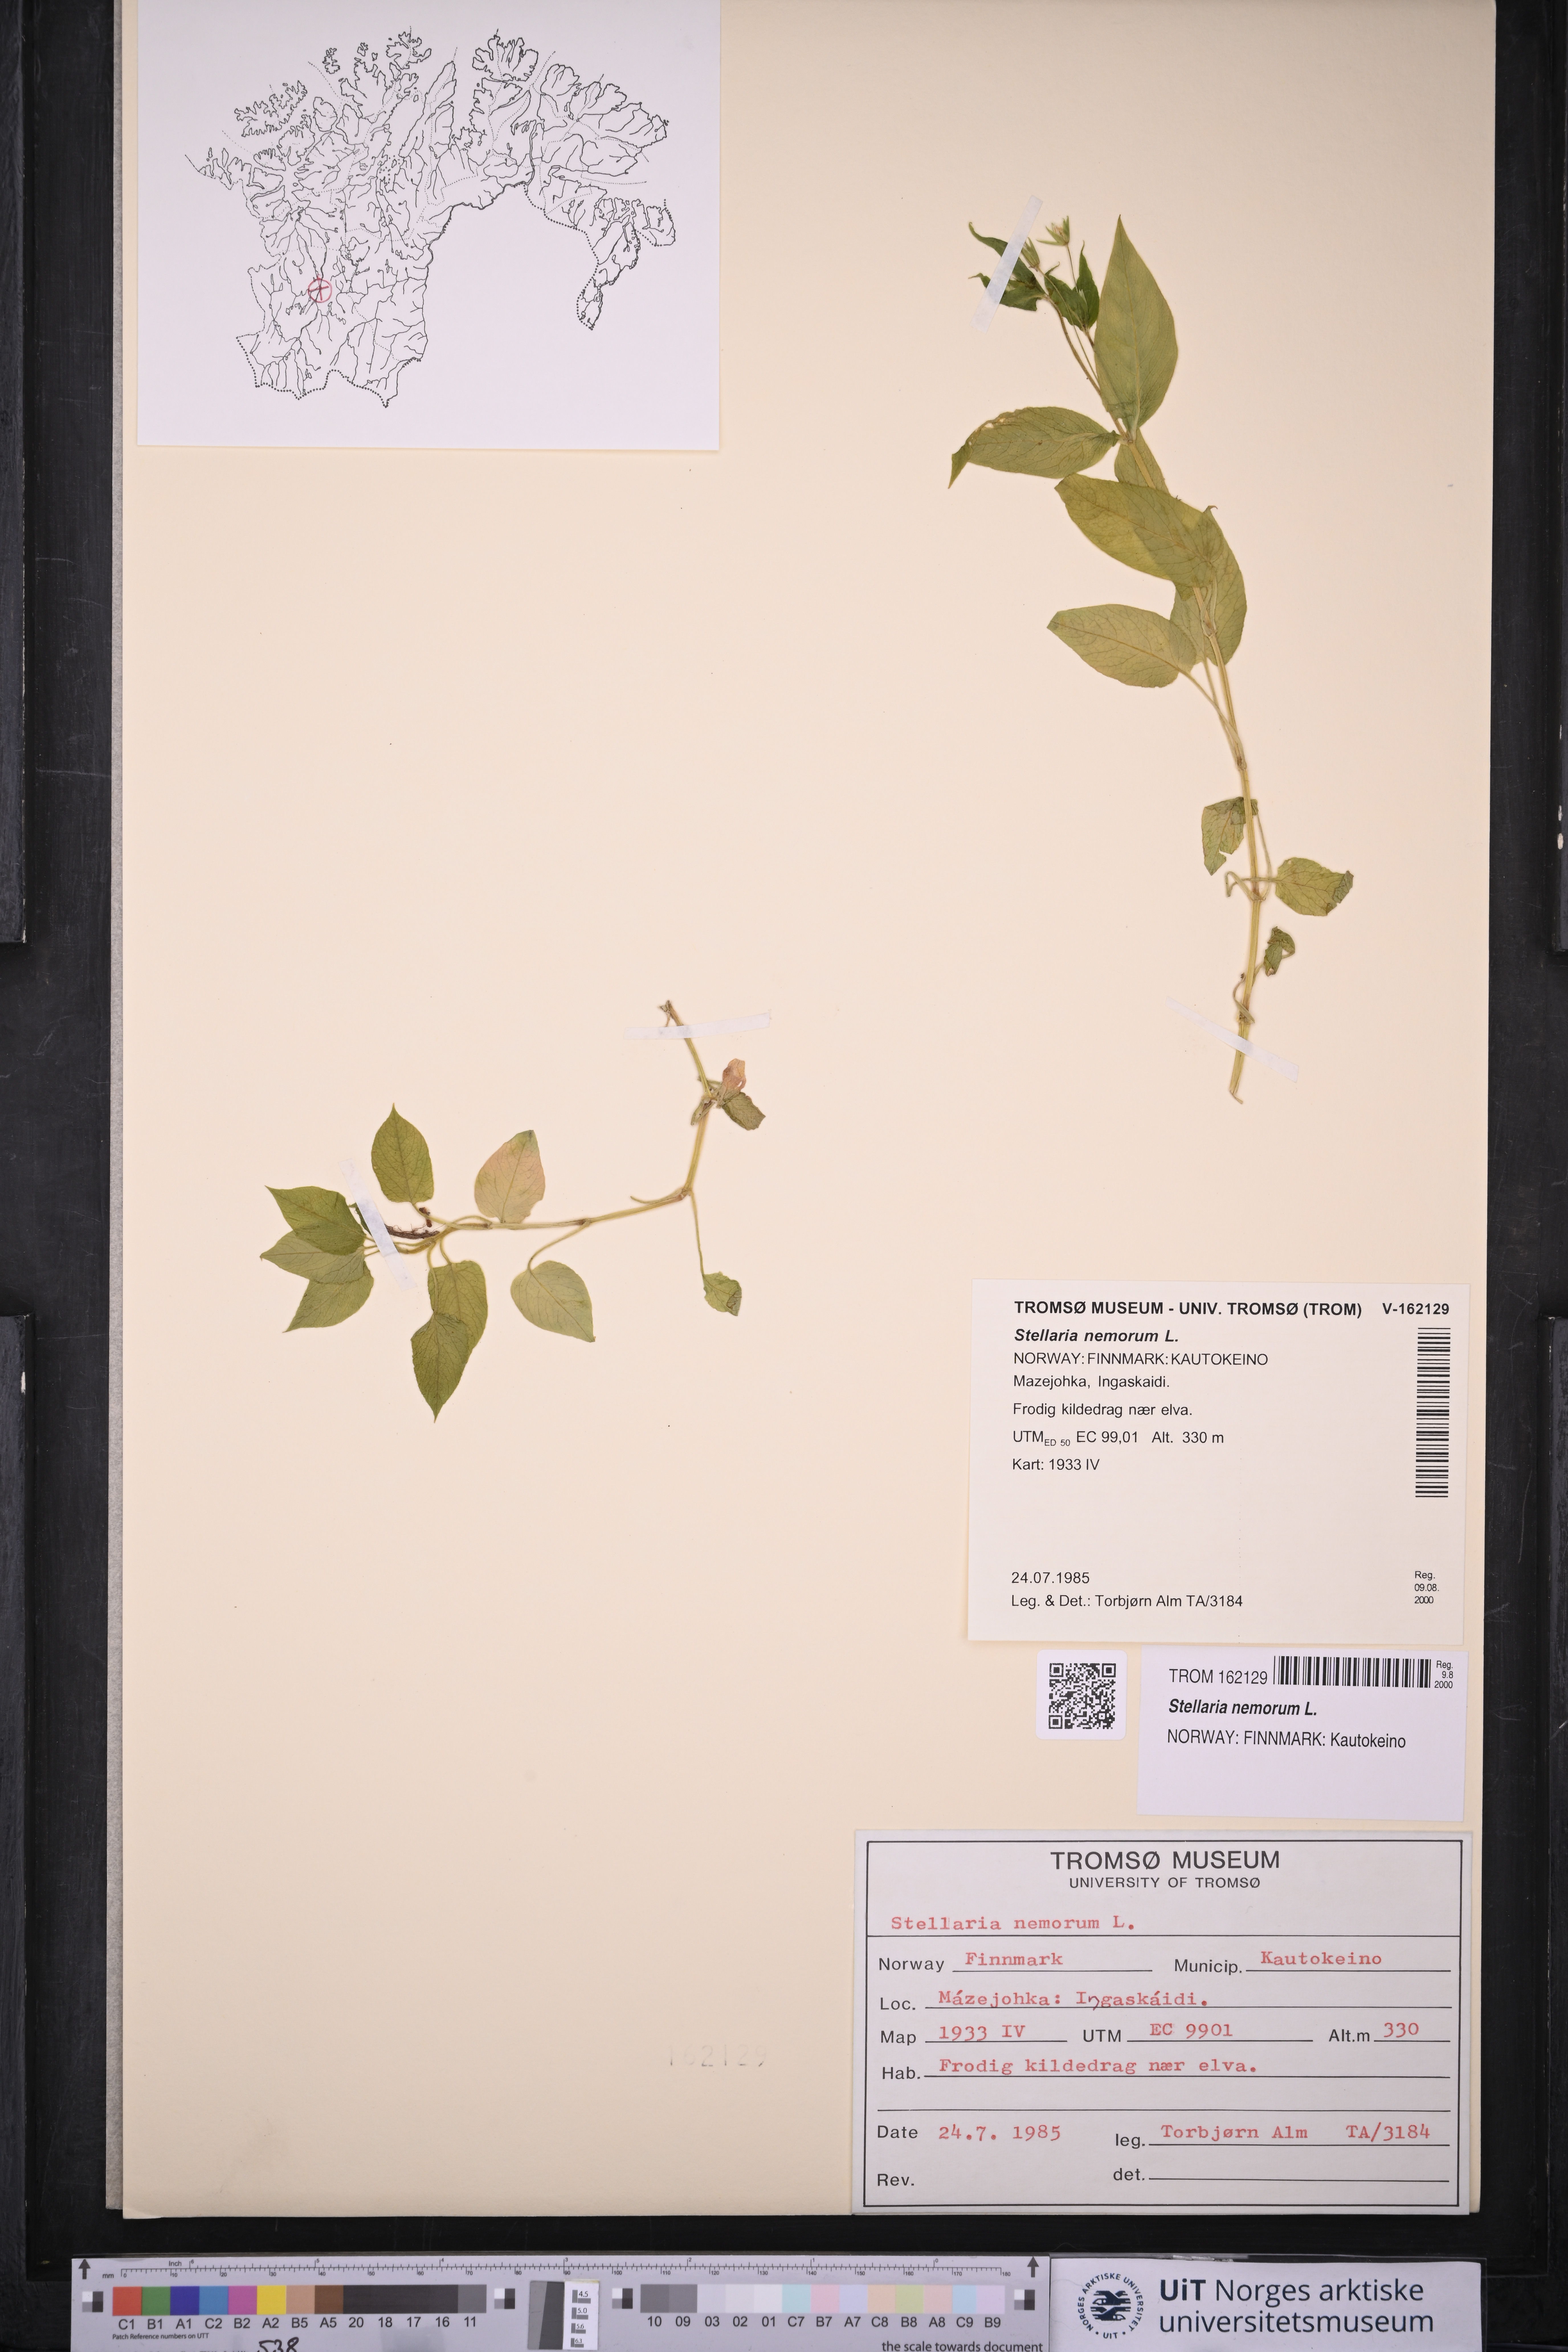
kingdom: Plantae
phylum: Tracheophyta
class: Magnoliopsida
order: Caryophyllales
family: Caryophyllaceae
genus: Stellaria
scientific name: Stellaria nemorum
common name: Wood stitchwort
